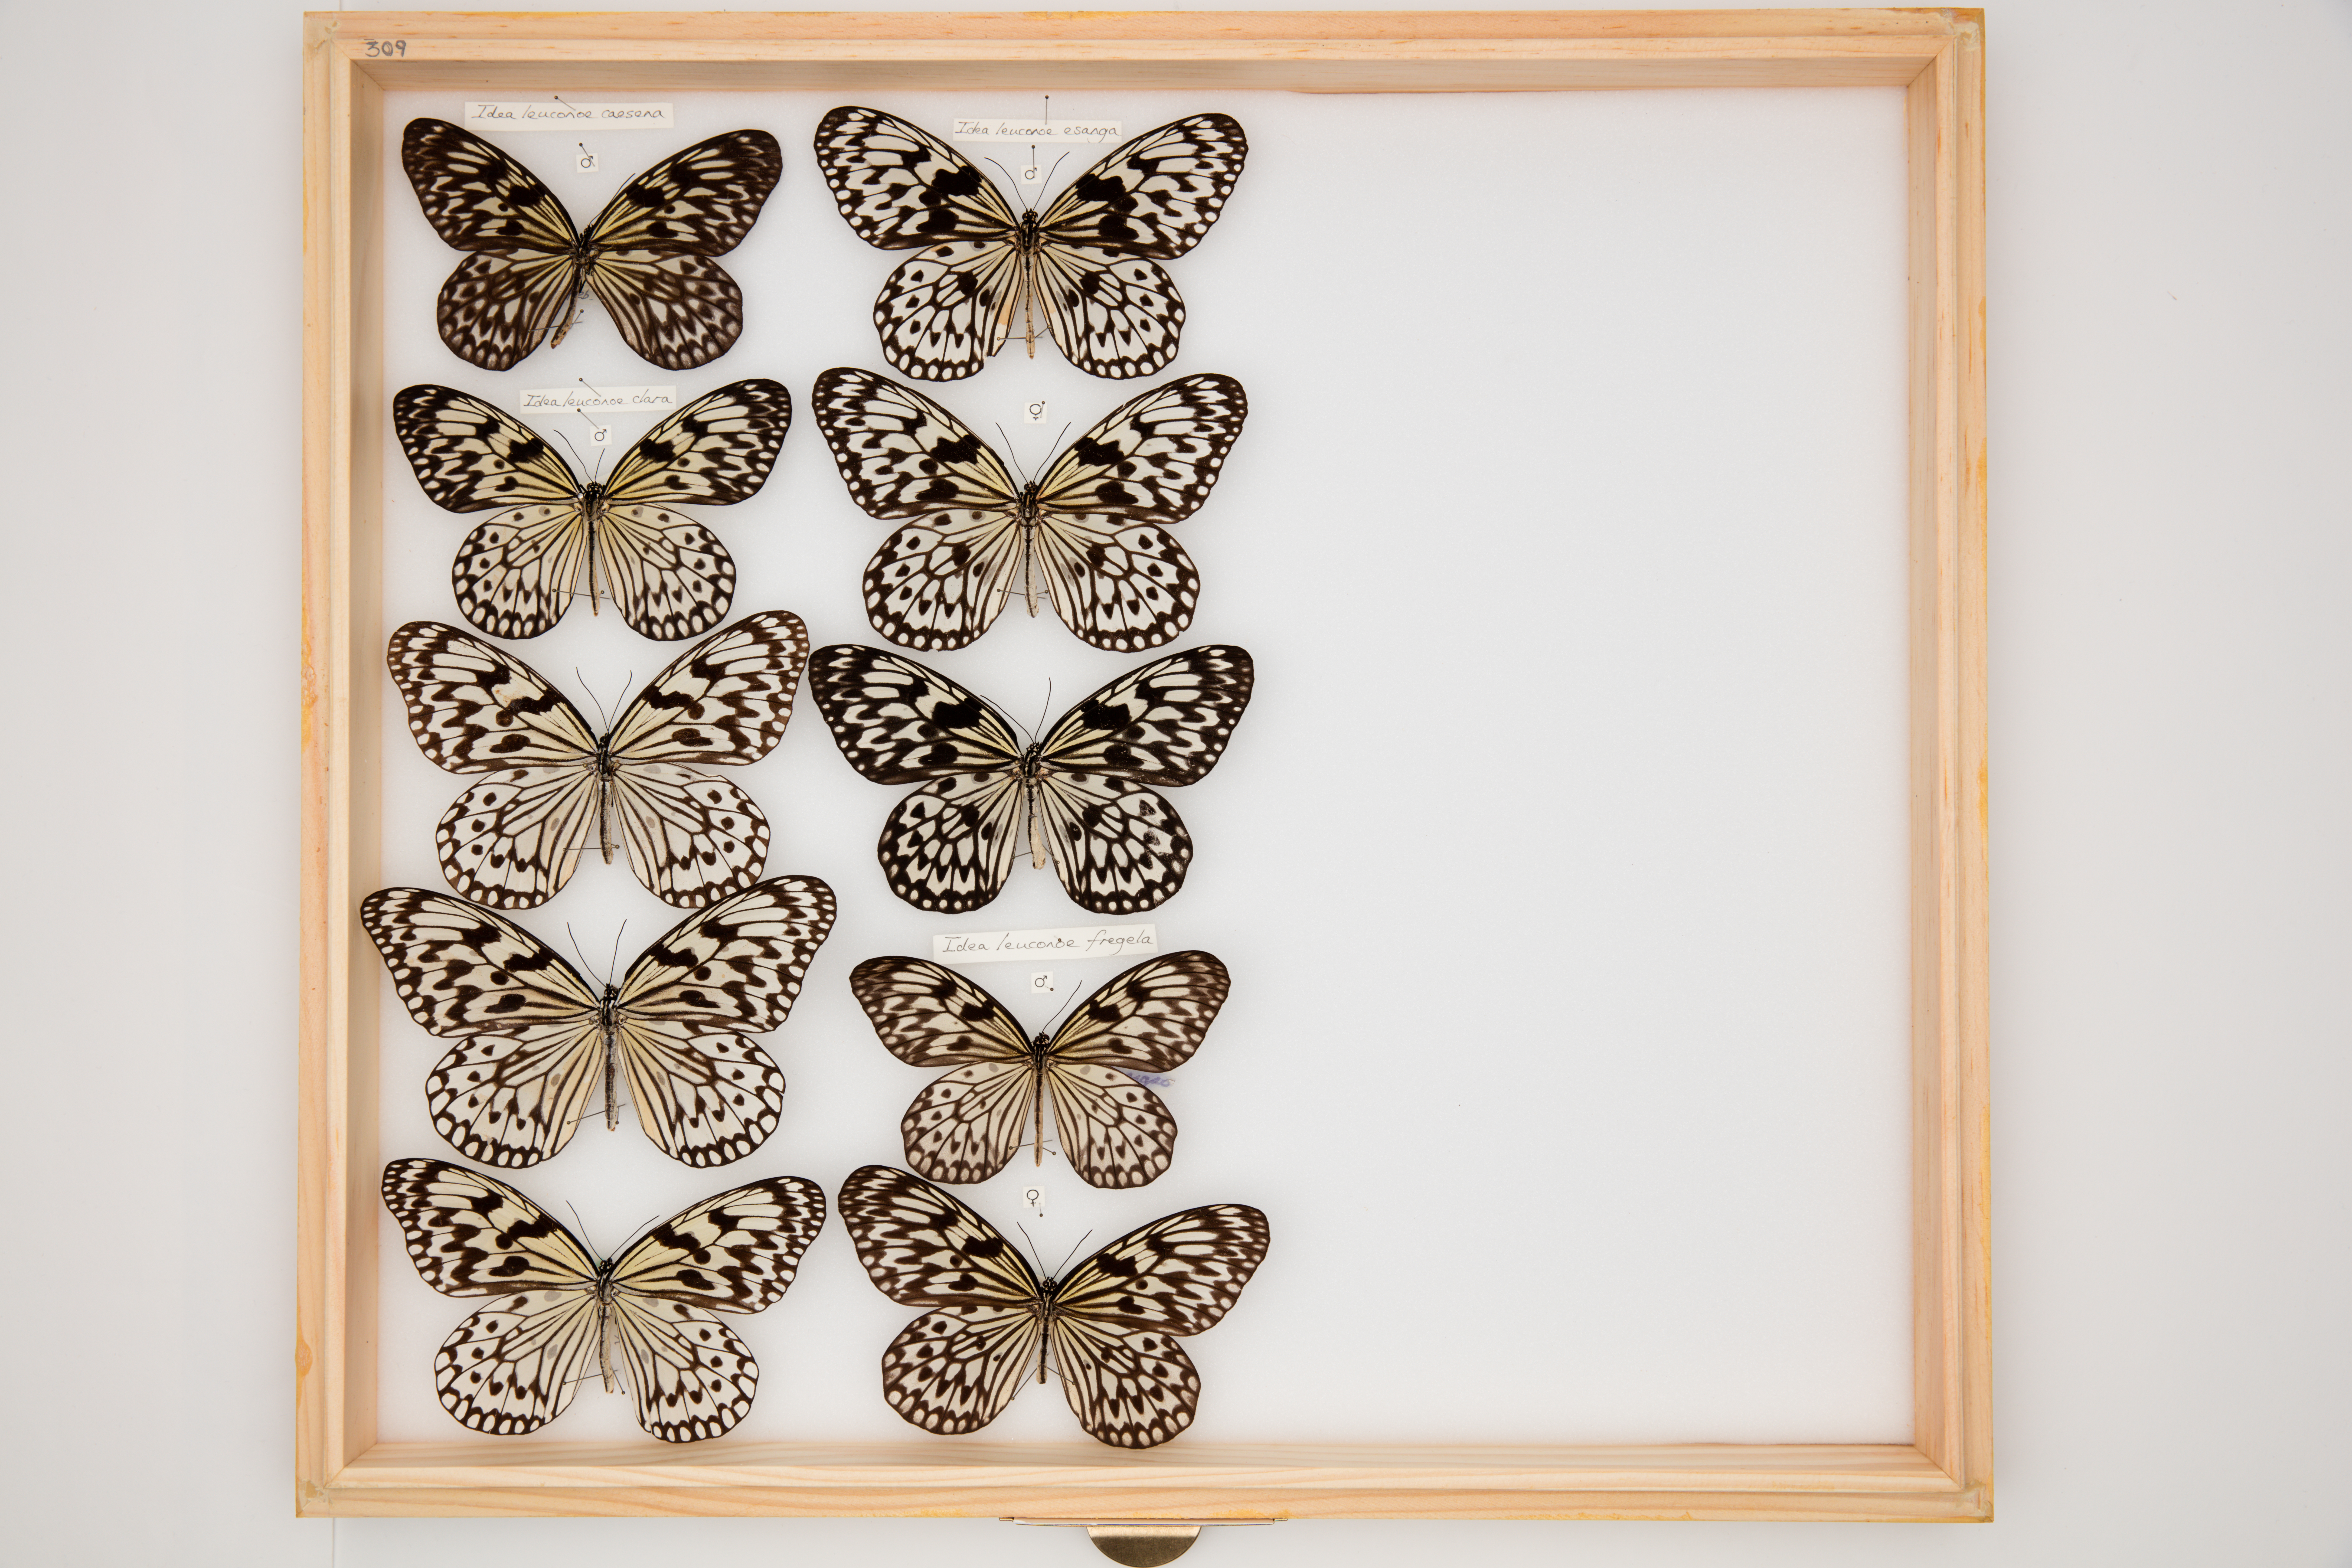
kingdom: Animalia
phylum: Arthropoda
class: Insecta
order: Lepidoptera
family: Nymphalidae
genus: Idea
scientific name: Idea leuconoe
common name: Rice paper butterfly
